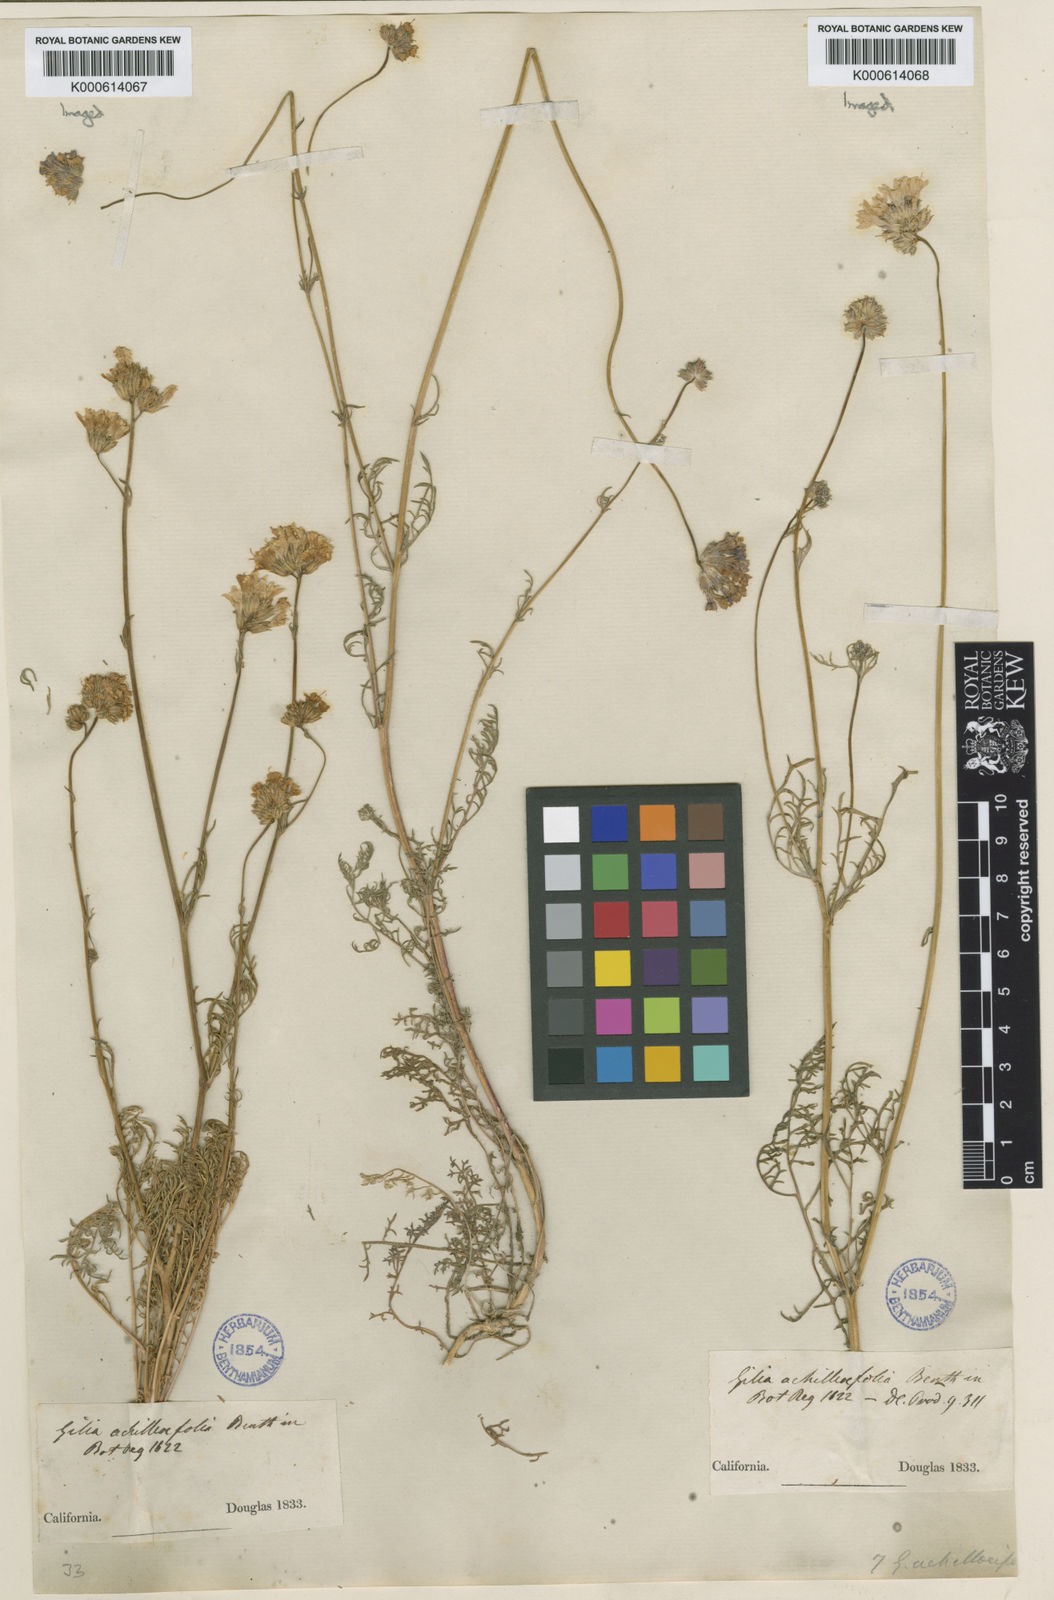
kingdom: Plantae
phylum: Tracheophyta
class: Magnoliopsida
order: Ericales
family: Polemoniaceae
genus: Gilia
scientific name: Gilia achilleifolia
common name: California gily-flower
